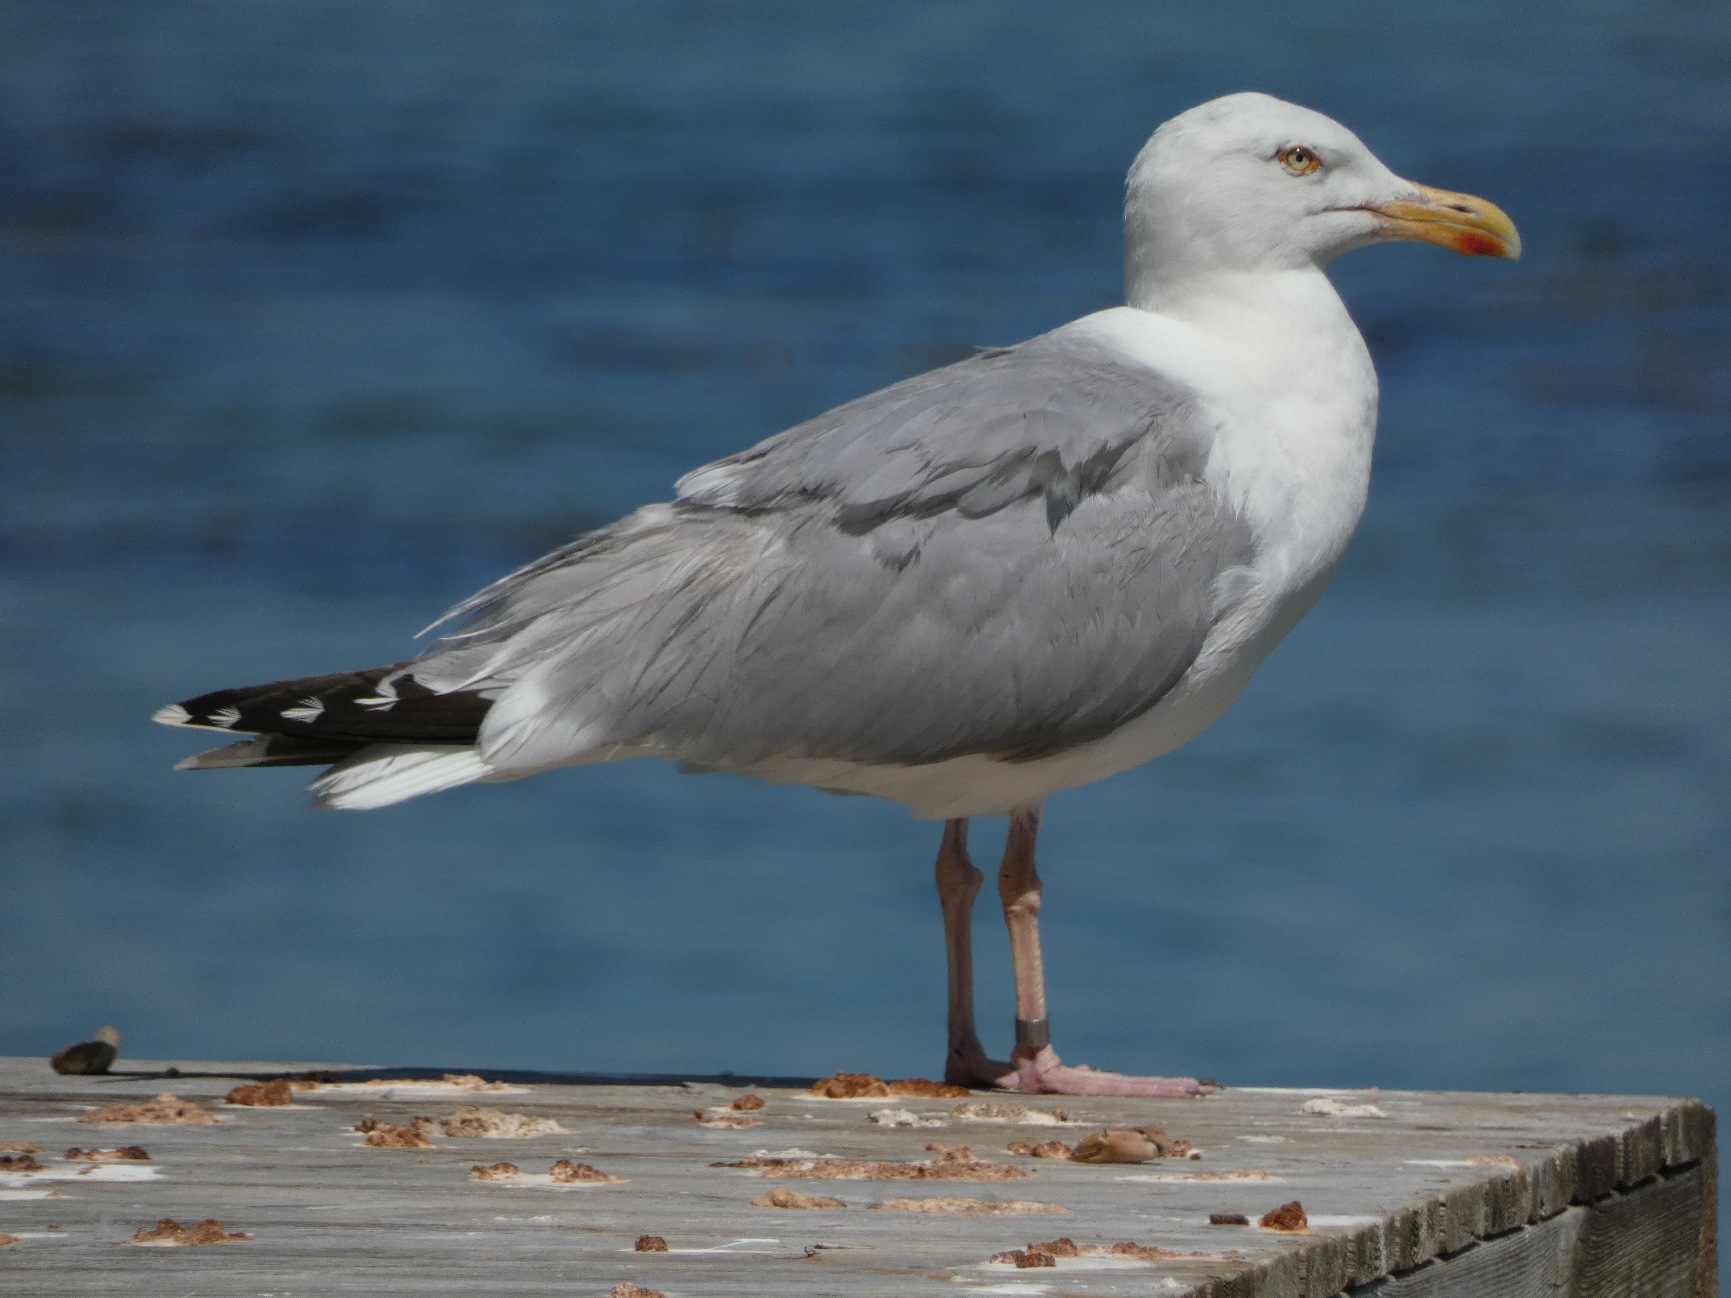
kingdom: Animalia
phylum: Chordata
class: Aves
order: Charadriiformes
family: Laridae
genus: Larus
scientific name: Larus argentatus
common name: Sølvmåge
